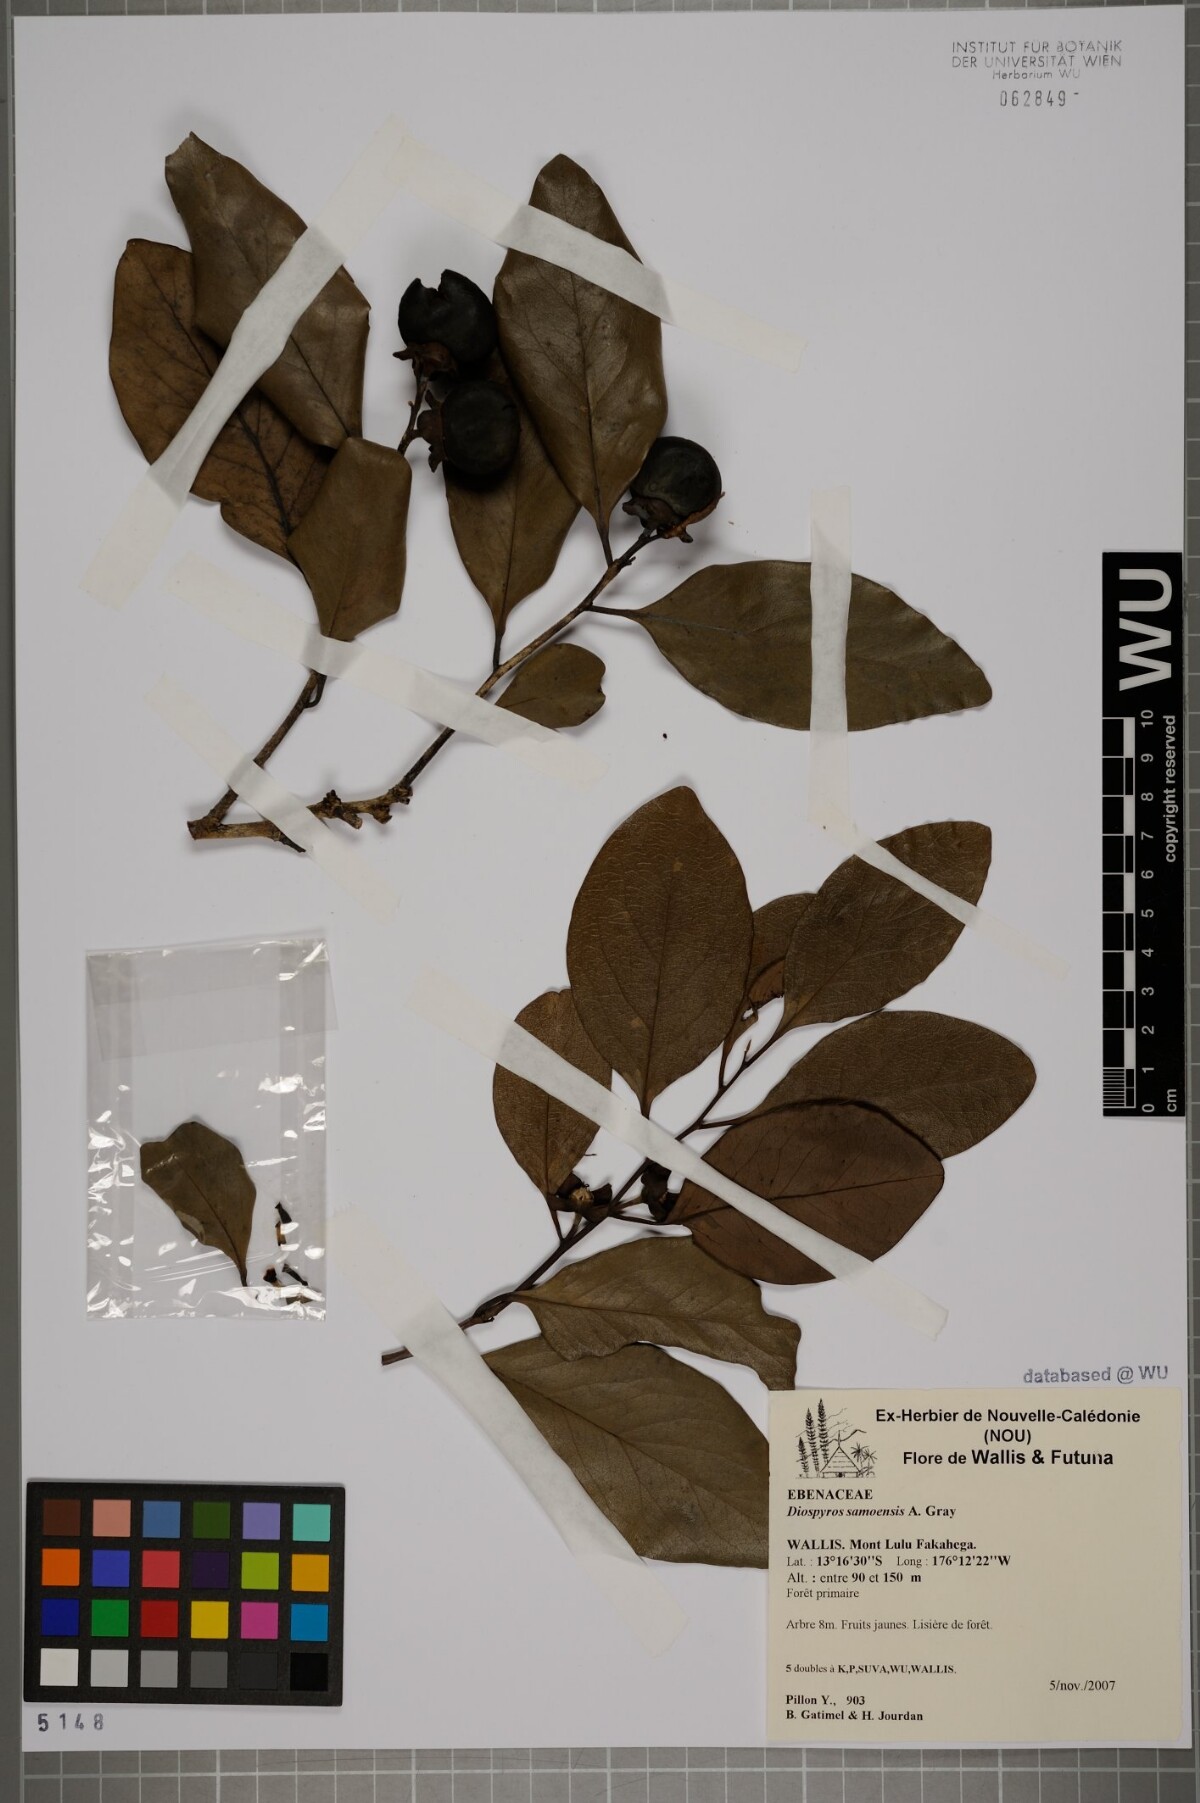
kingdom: Plantae
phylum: Tracheophyta
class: Magnoliopsida
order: Ericales
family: Ebenaceae
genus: Diospyros
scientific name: Diospyros samoensis
